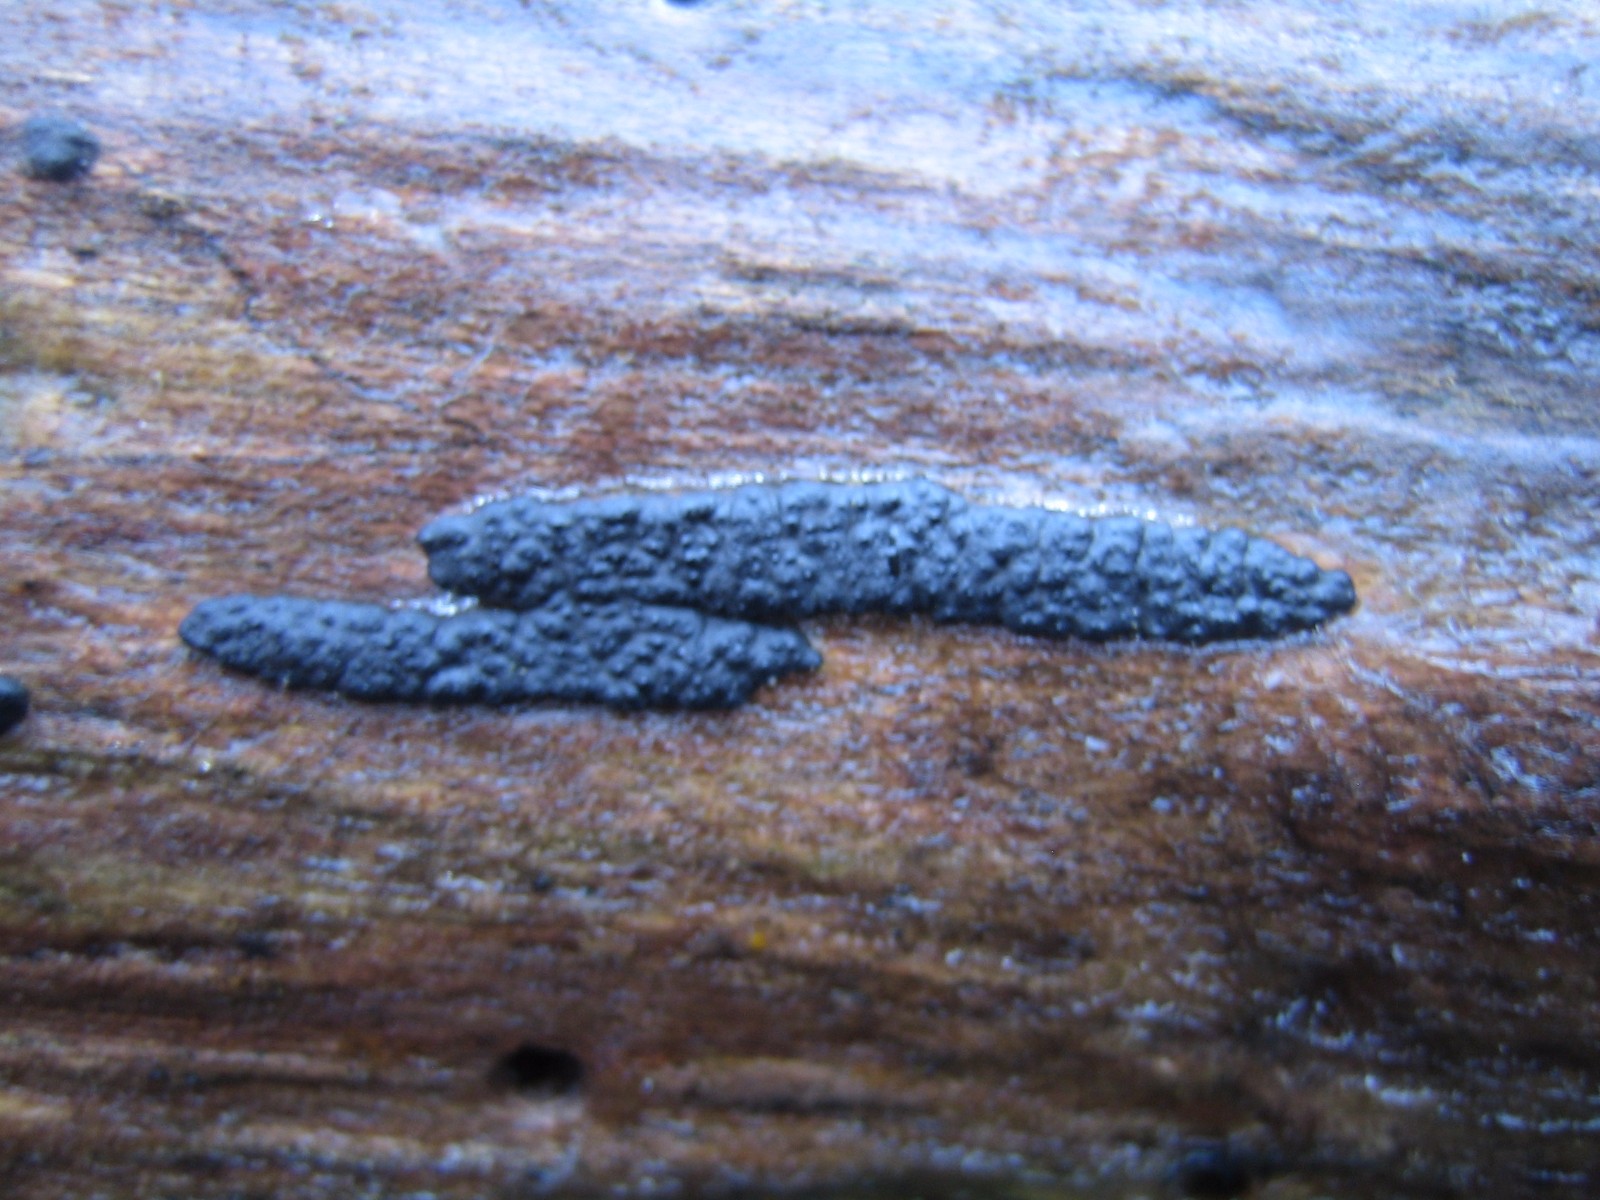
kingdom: Fungi
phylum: Ascomycota
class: Sordariomycetes
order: Xylariales
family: Xylariaceae
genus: Nemania
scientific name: Nemania
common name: kuldyne
